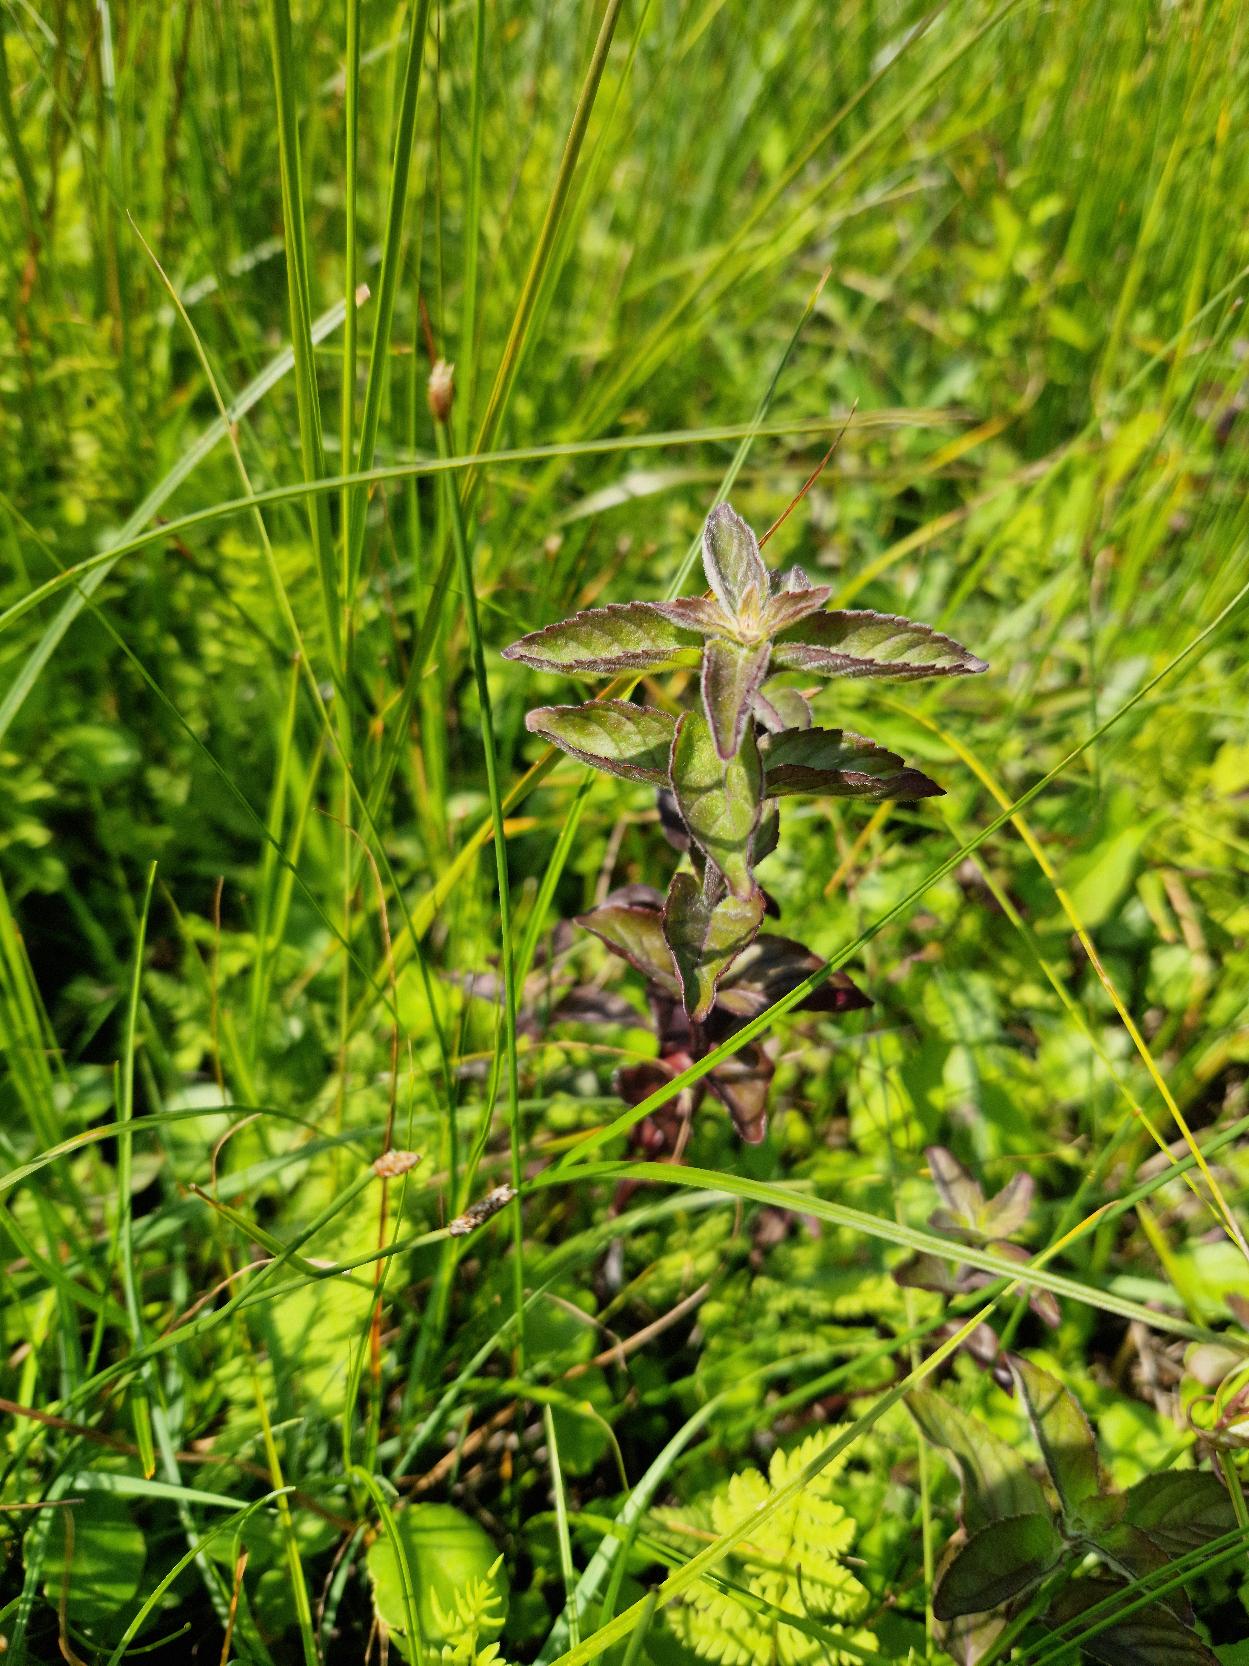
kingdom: Plantae
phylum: Tracheophyta
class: Magnoliopsida
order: Lamiales
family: Lamiaceae
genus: Mentha
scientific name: Mentha aquatica
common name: Vand-mynte
